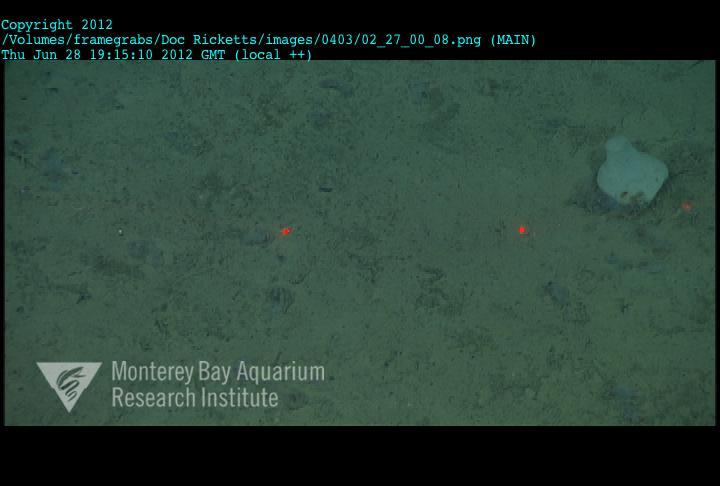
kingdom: Animalia
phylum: Porifera
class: Hexactinellida
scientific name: Hexactinellida
